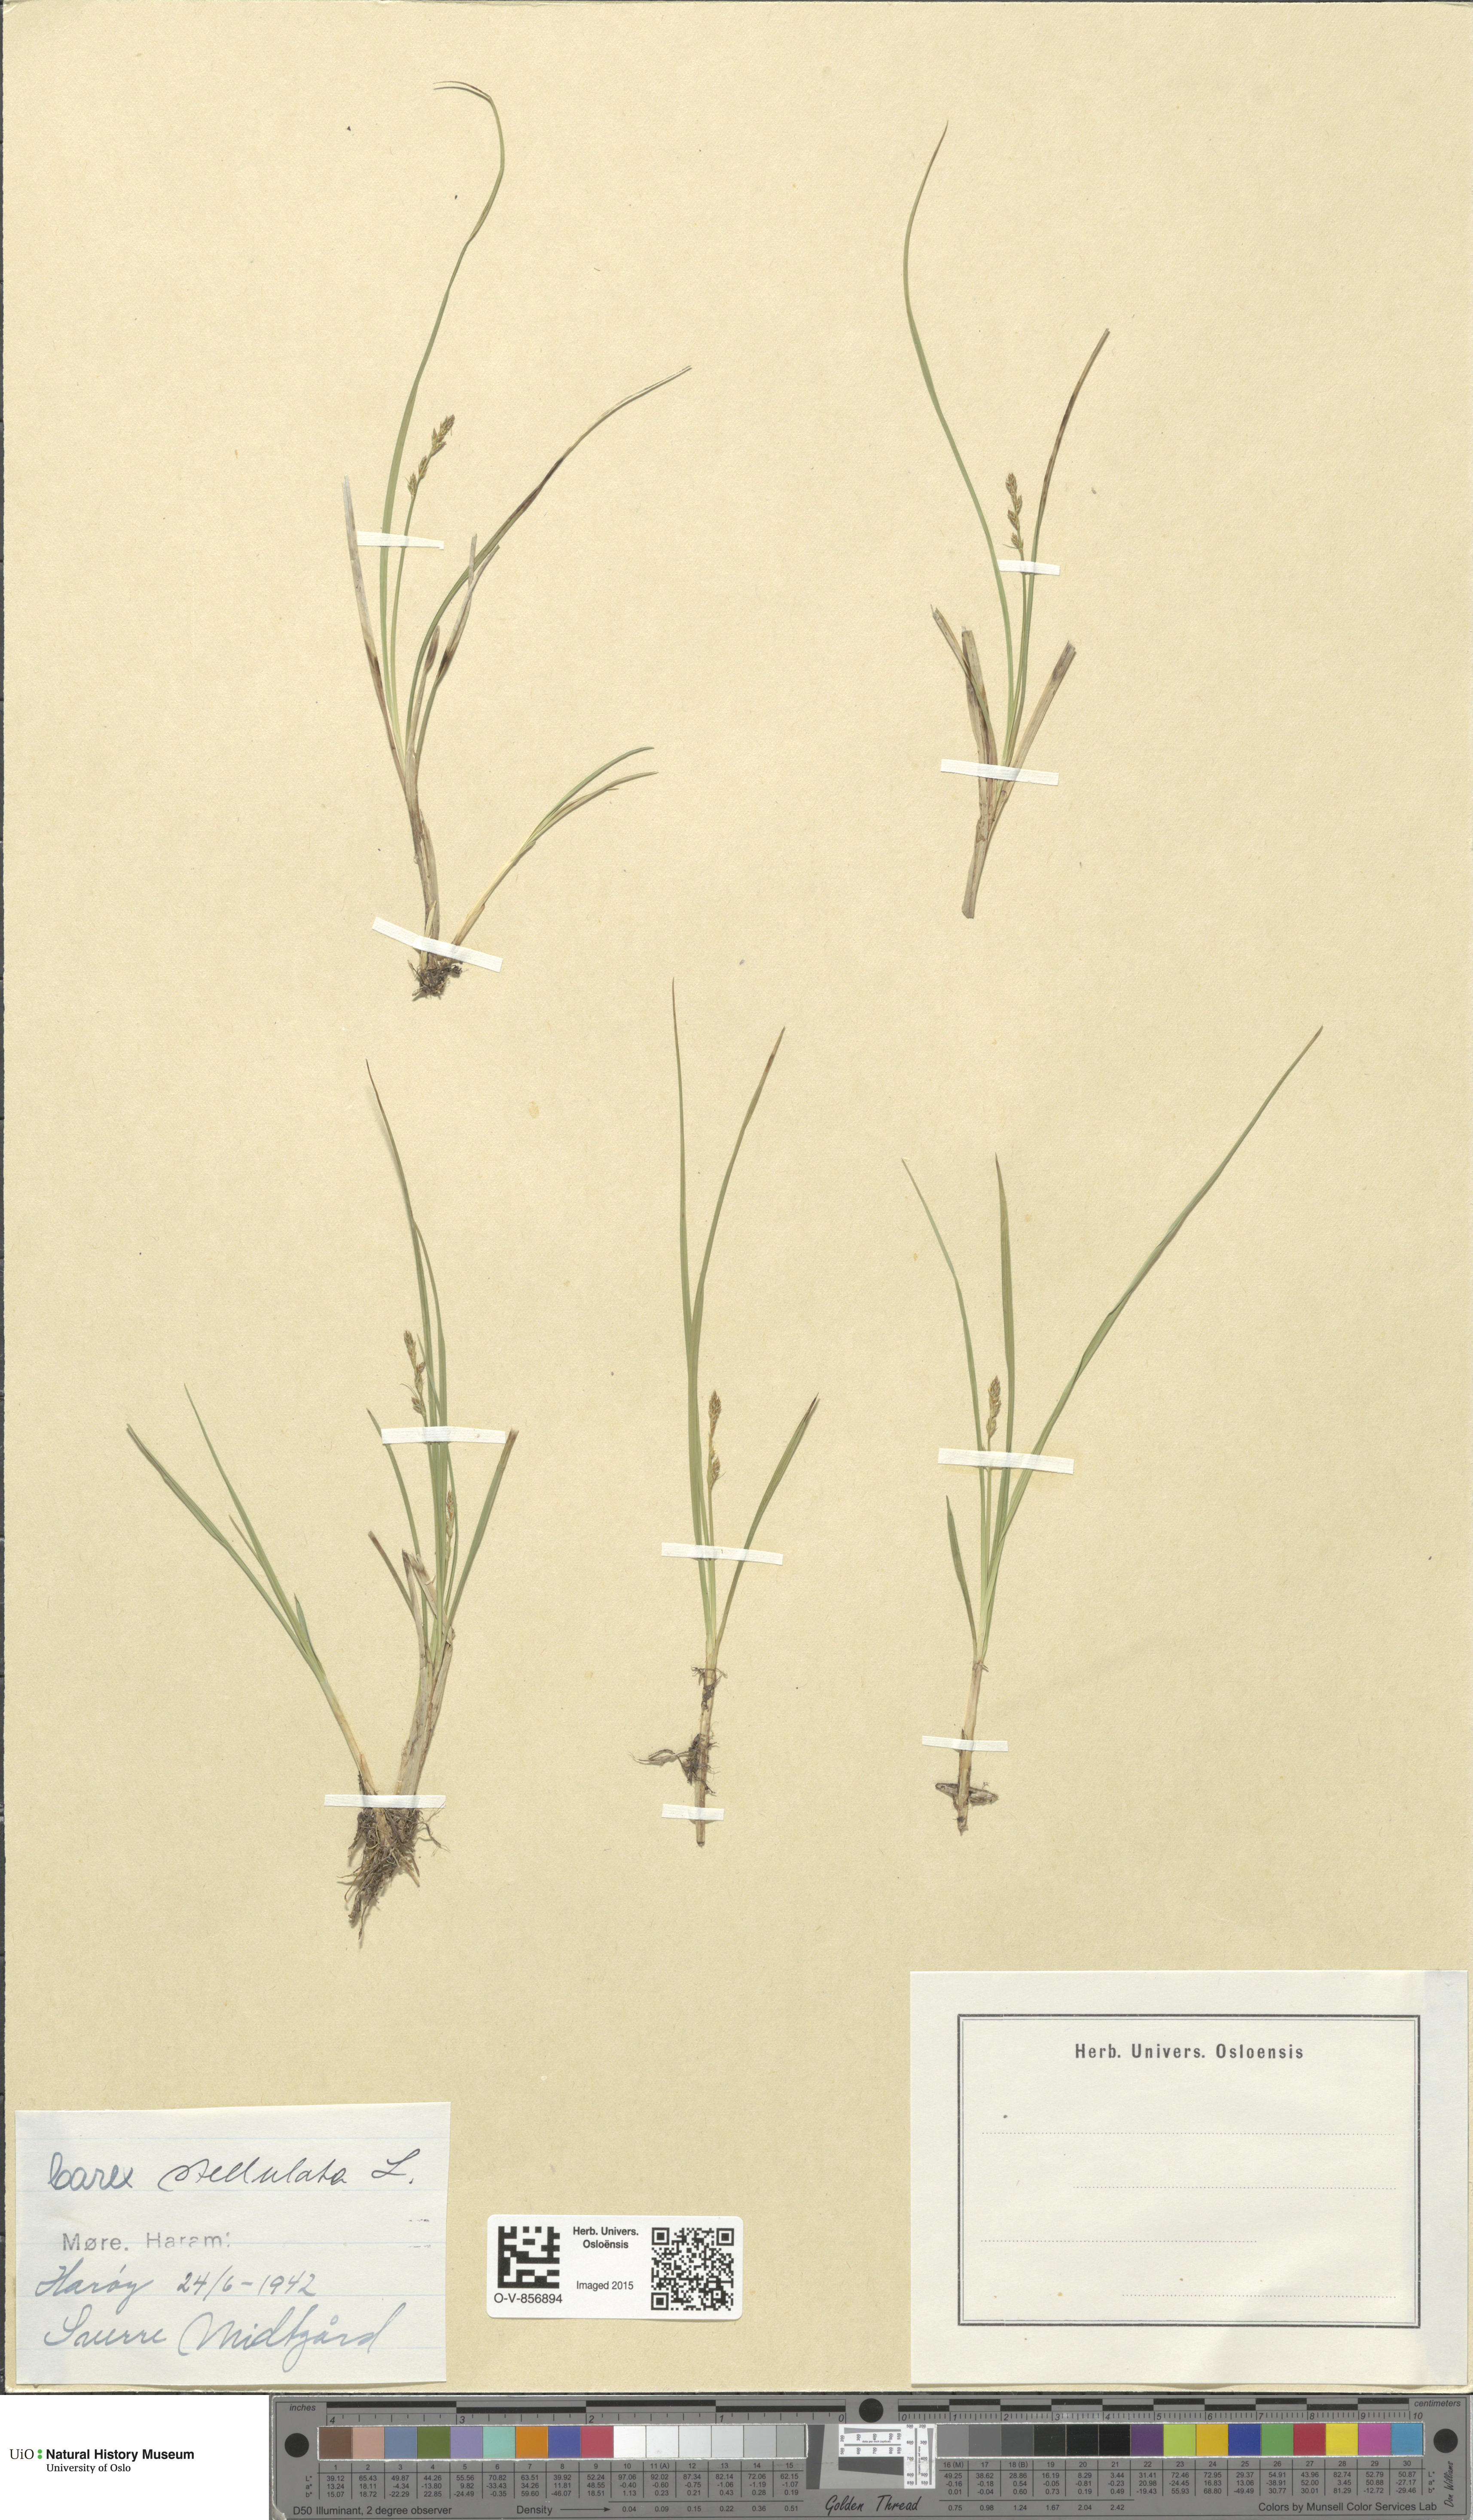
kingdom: Plantae
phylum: Tracheophyta
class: Liliopsida
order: Poales
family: Cyperaceae
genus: Carex
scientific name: Carex echinata
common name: Star sedge
